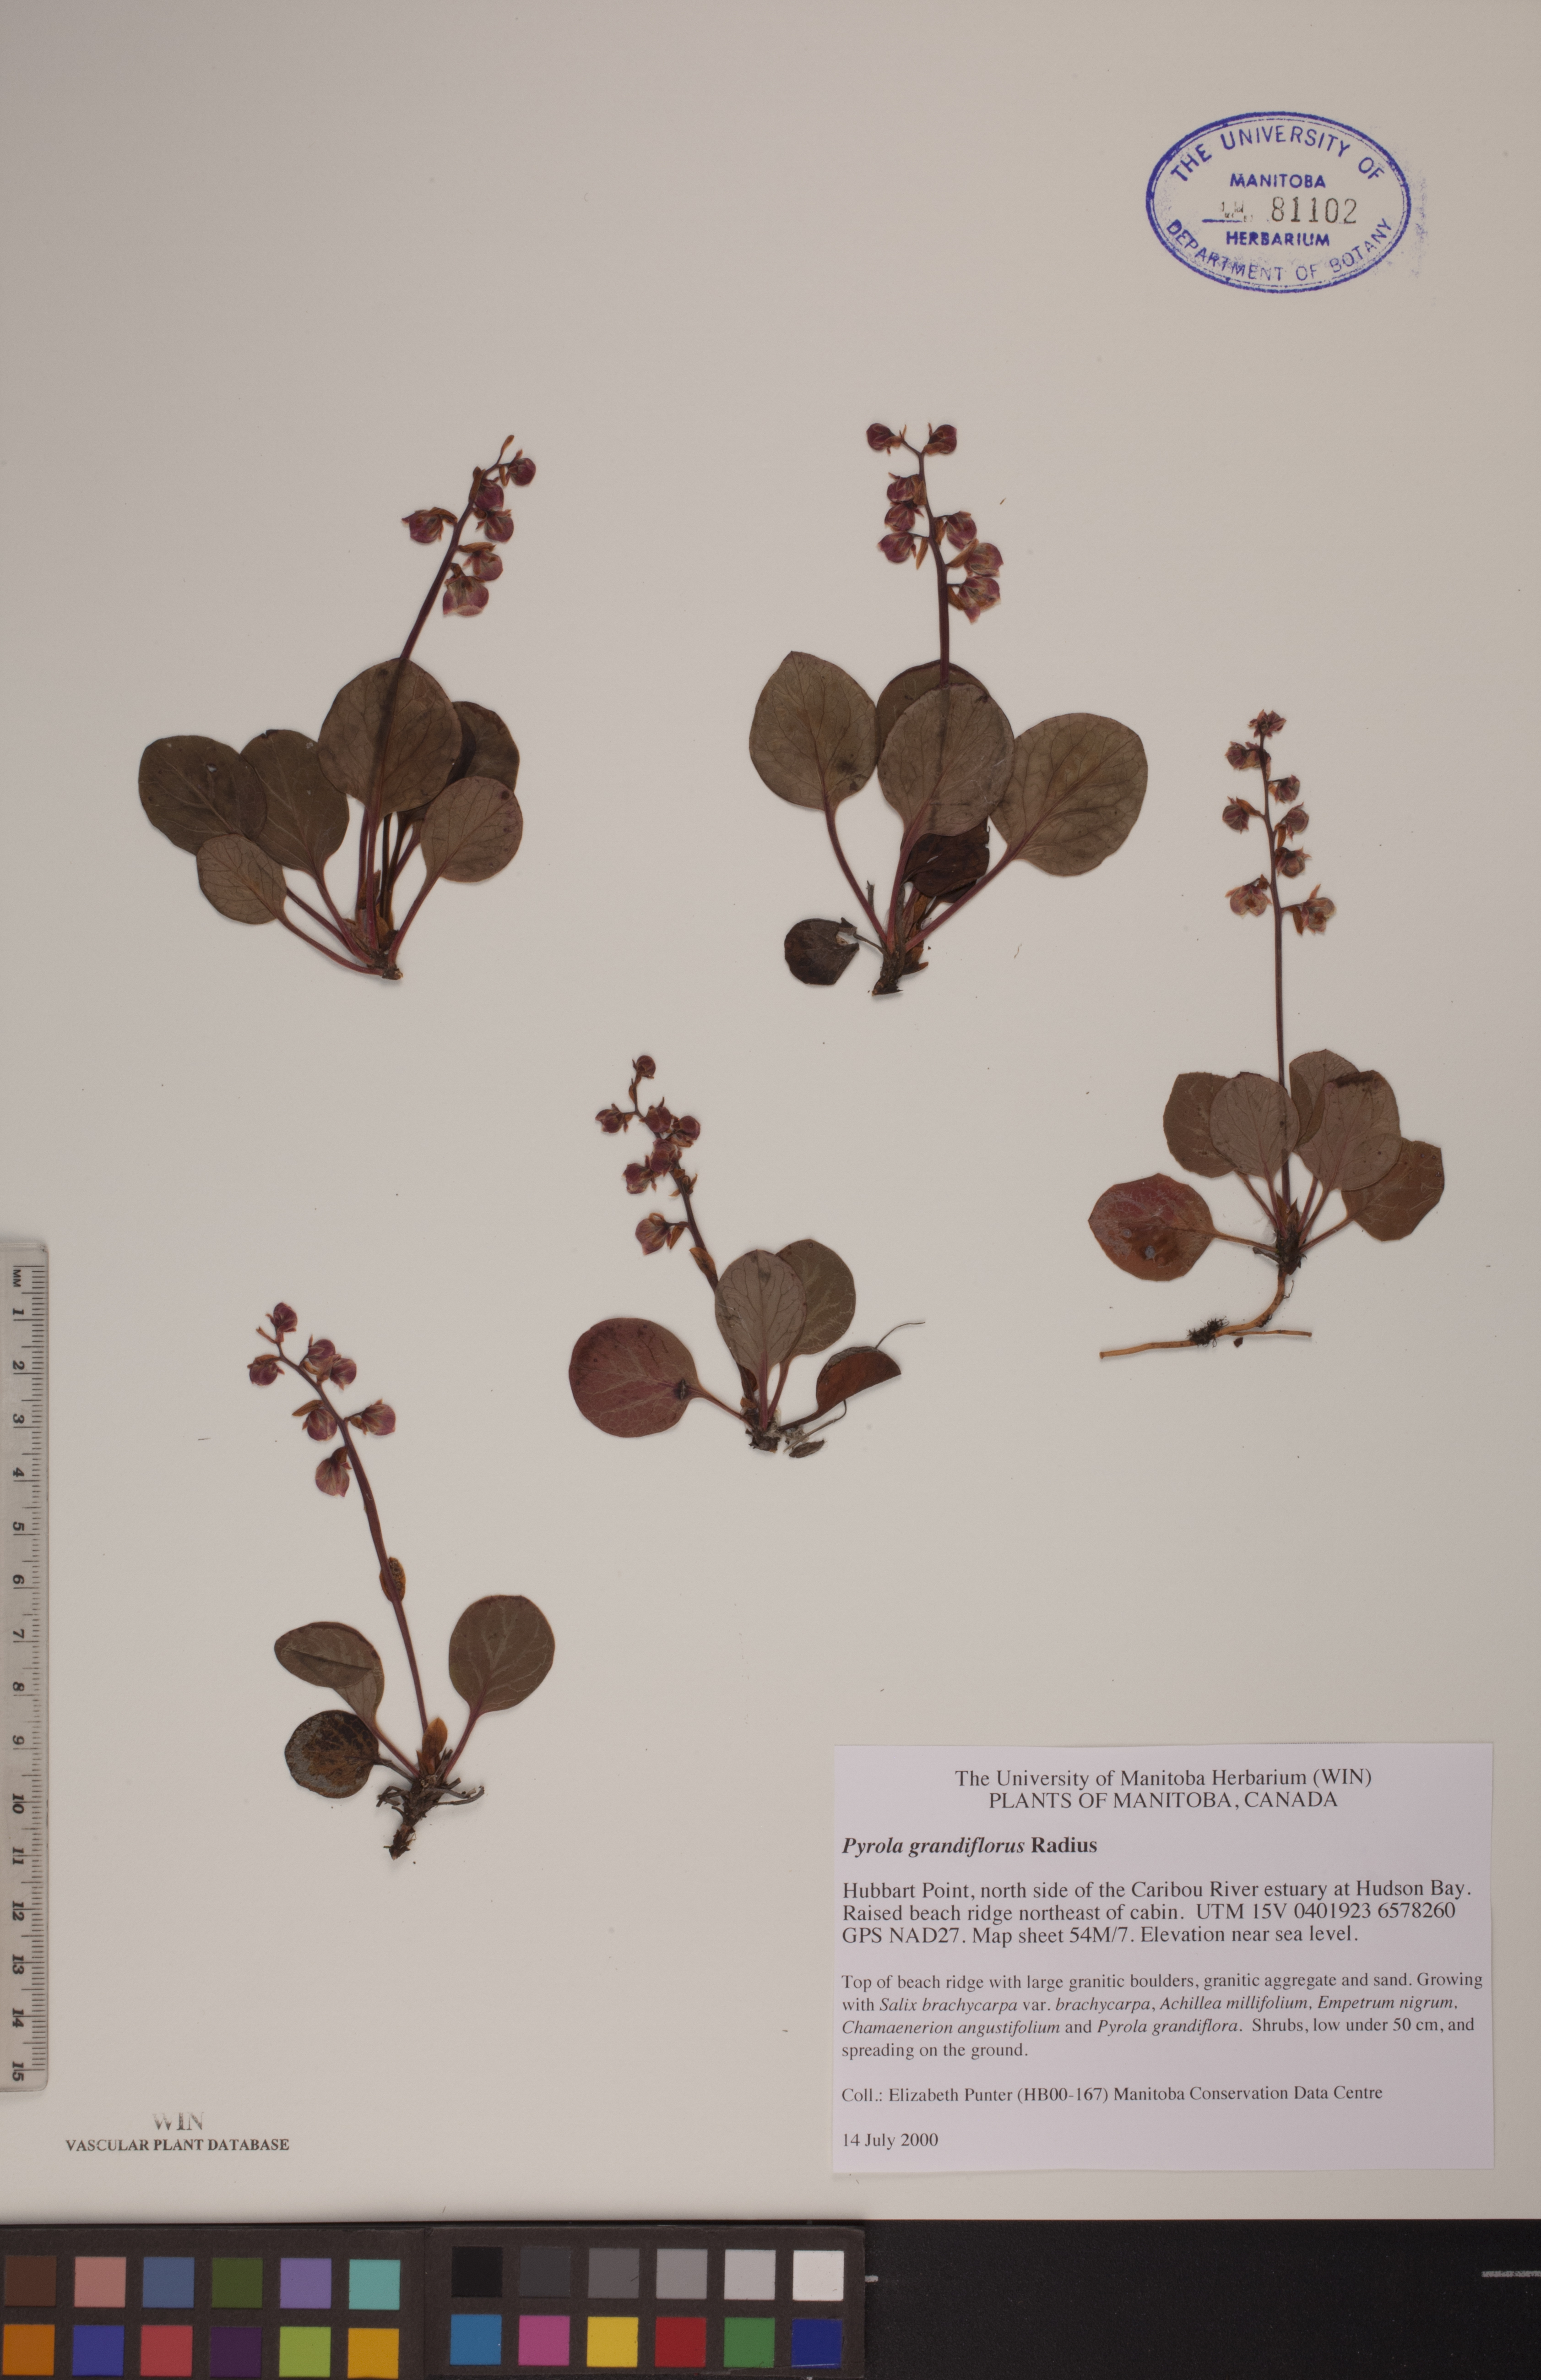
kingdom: Plantae
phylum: Tracheophyta
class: Magnoliopsida
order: Ericales
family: Ericaceae
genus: Pyrola
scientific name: Pyrola grandiflora
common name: Arctic pyrola
